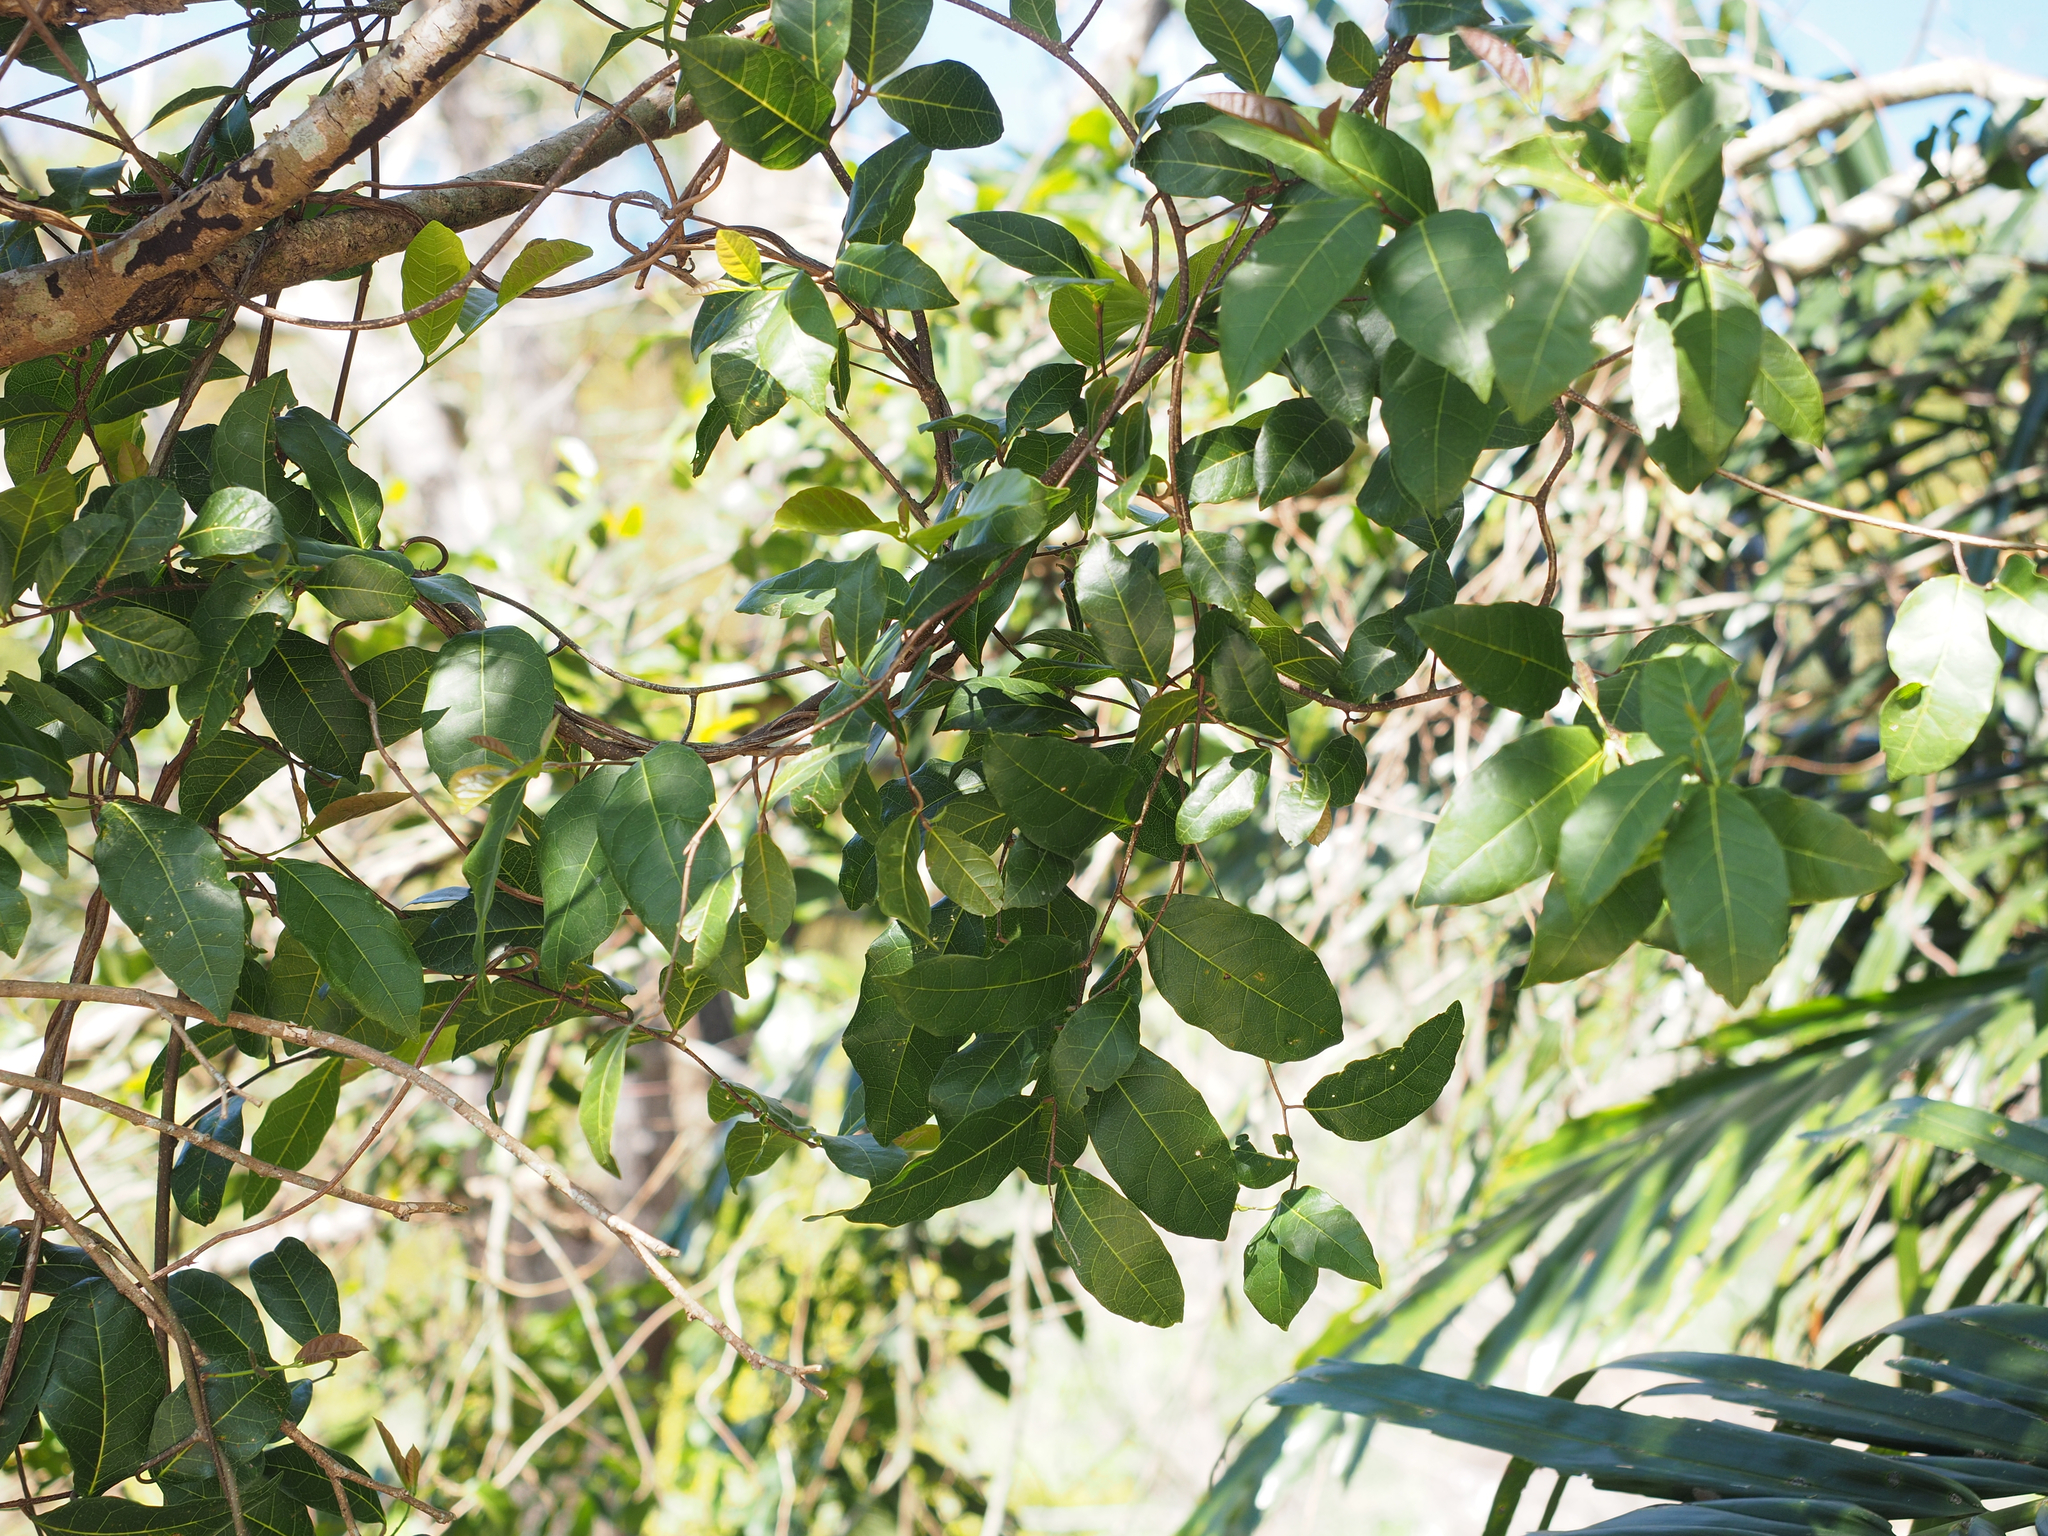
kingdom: Plantae
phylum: Tracheophyta
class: Magnoliopsida
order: Rosales
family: Moraceae
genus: Malaisia
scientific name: Malaisia scandens
